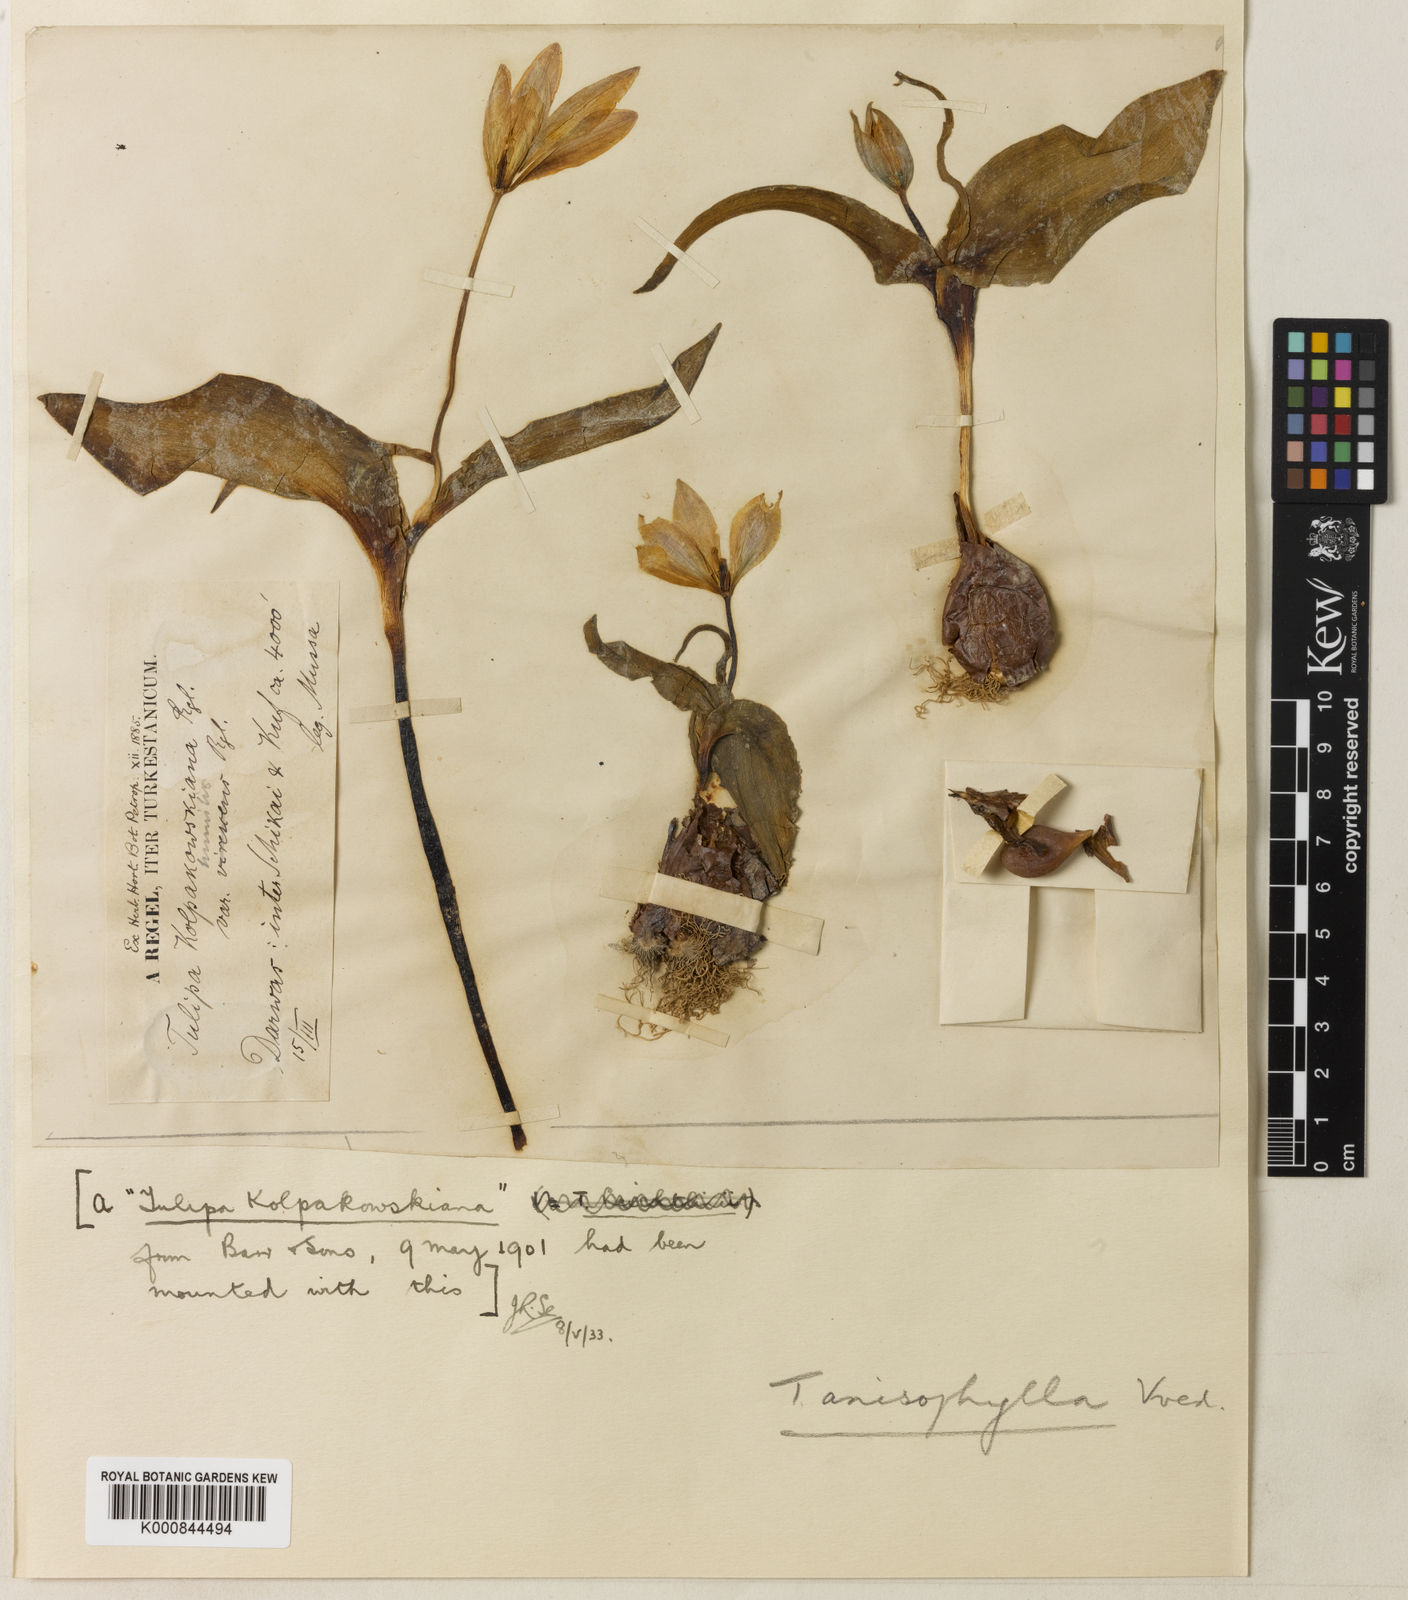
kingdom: Plantae
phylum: Tracheophyta
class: Liliopsida
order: Liliales
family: Liliaceae
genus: Tulipa
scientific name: Tulipa anisophylla
